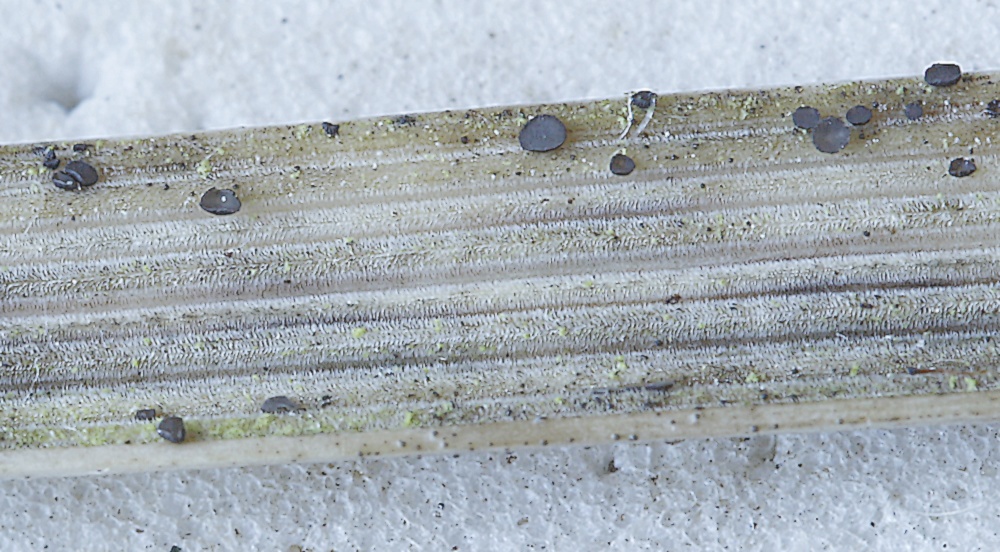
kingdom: Fungi
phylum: Ascomycota
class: Leotiomycetes
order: Helotiales
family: Mollisiaceae
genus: Mollisia
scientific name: Mollisia
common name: gråskive
